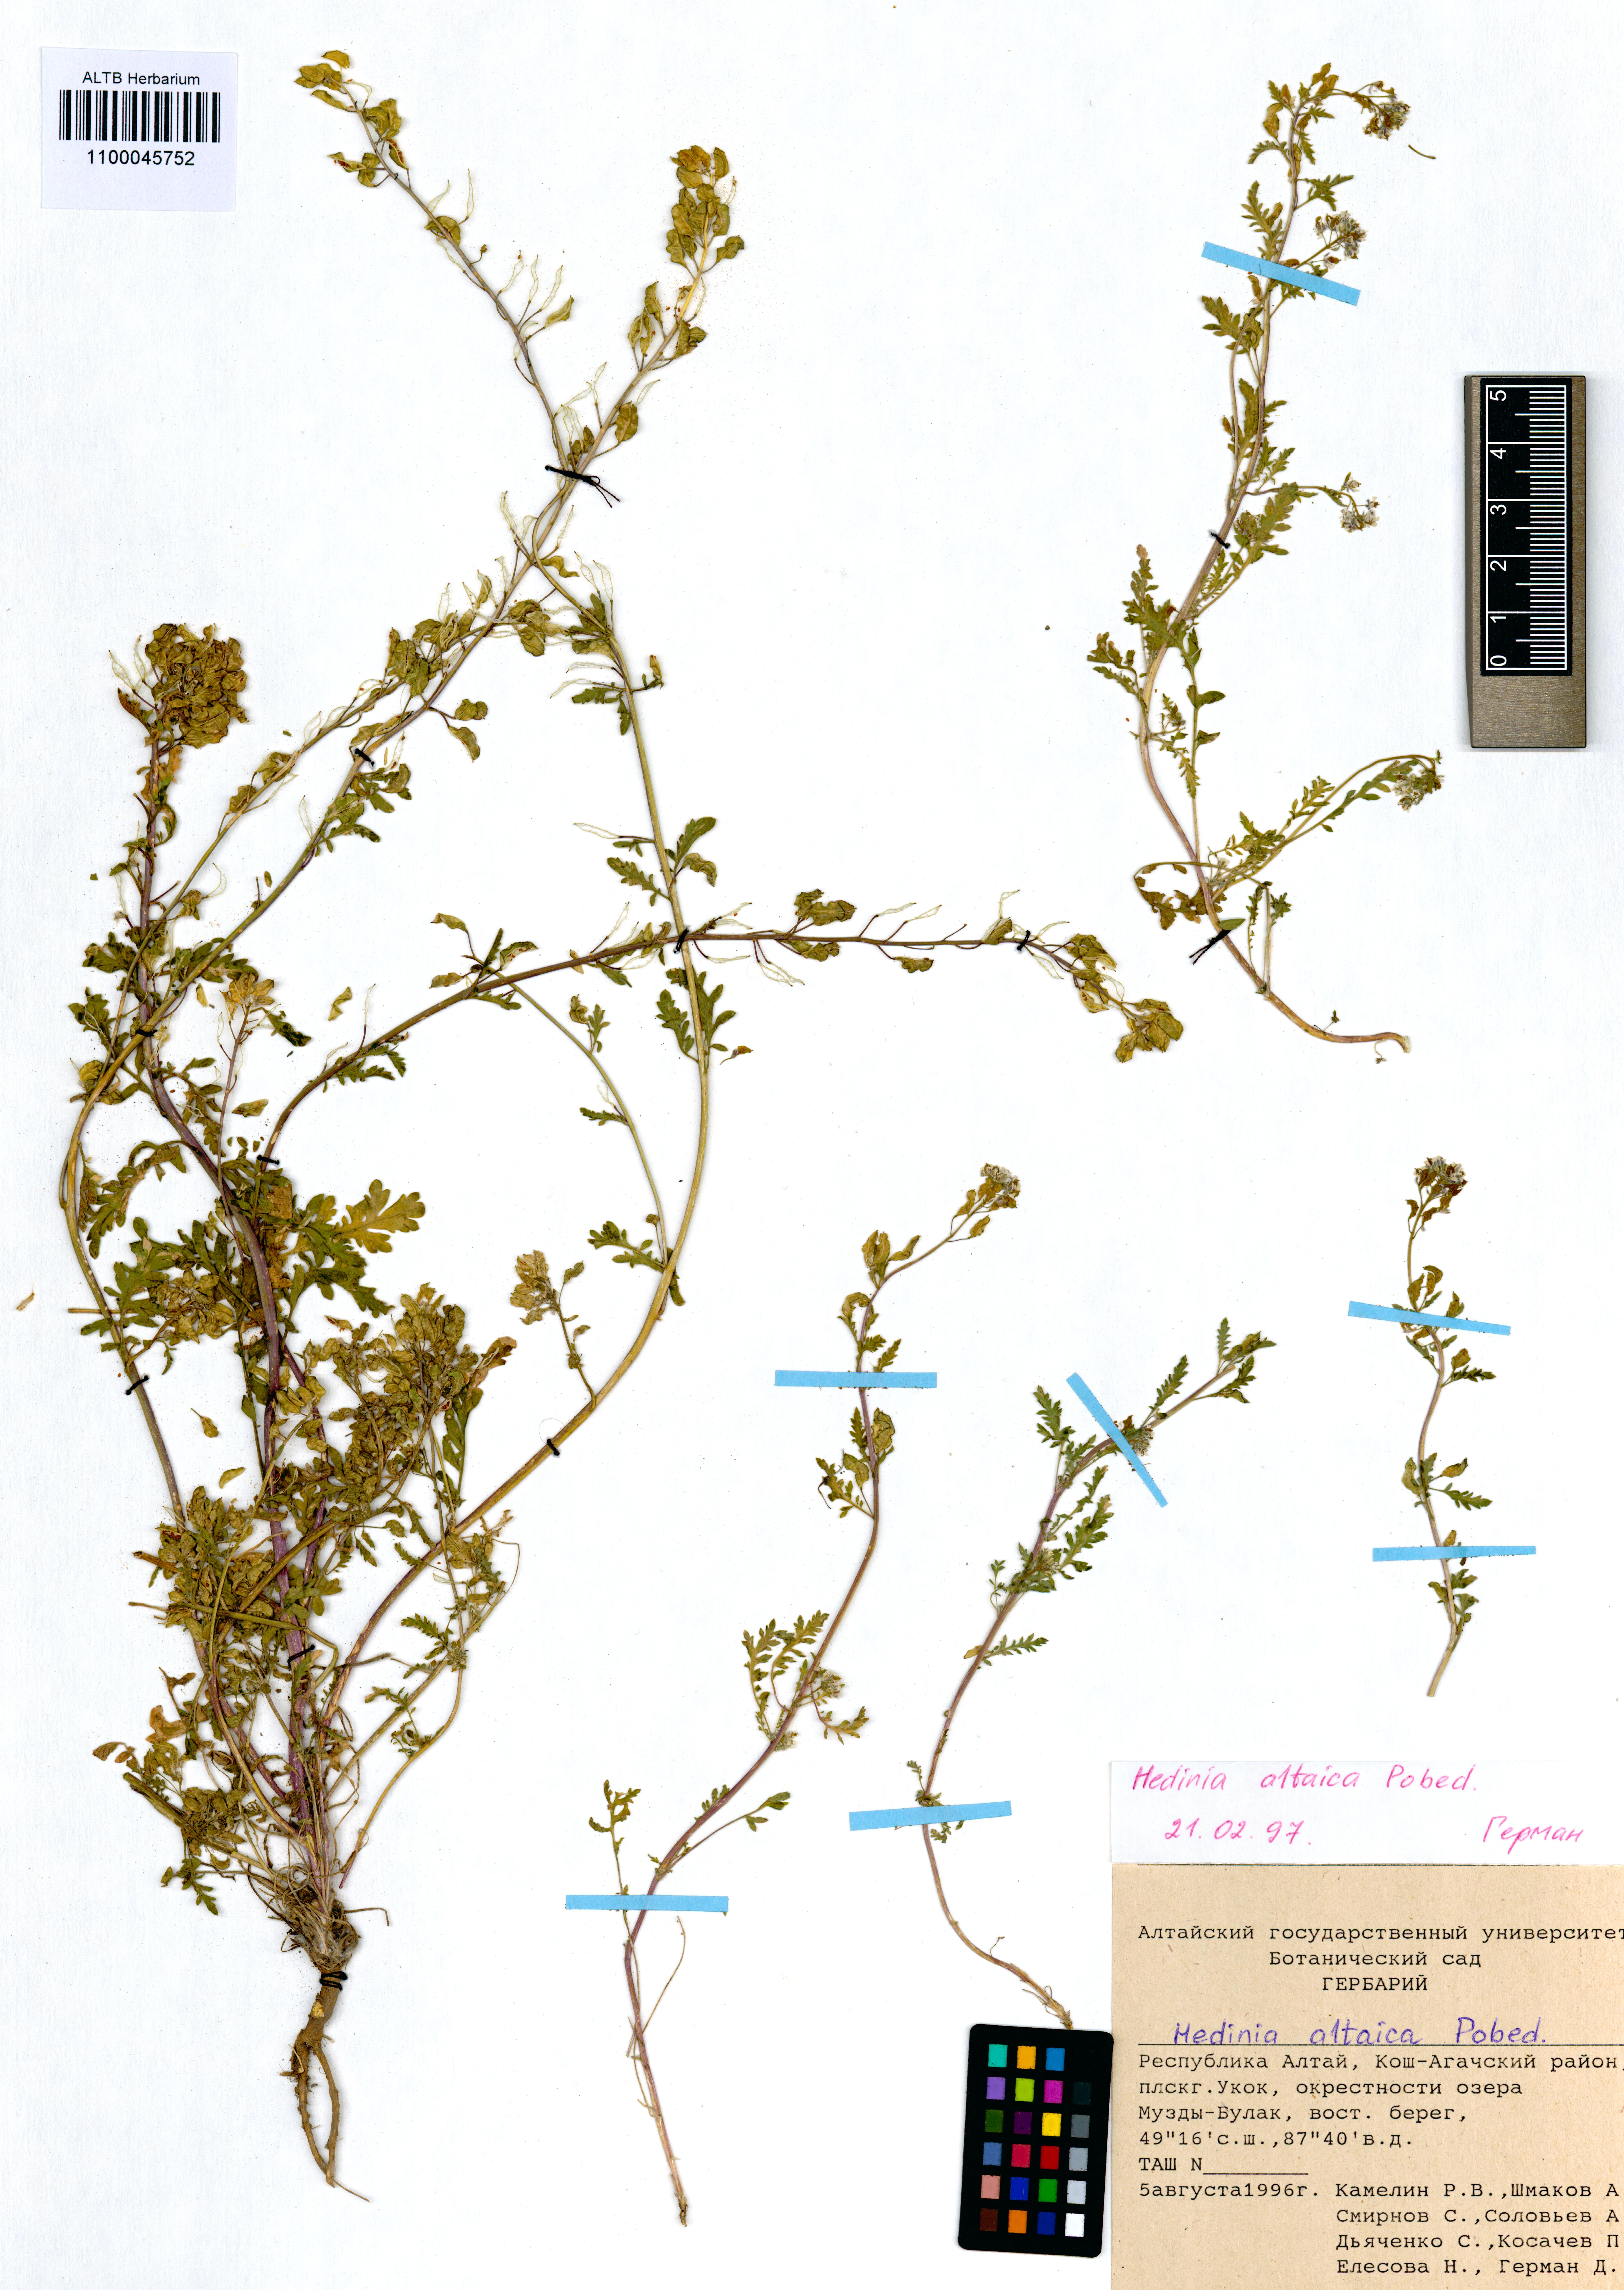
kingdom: Plantae
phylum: Tracheophyta
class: Magnoliopsida
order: Brassicales
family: Brassicaceae
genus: Smelowskia
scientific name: Smelowskia altaica
